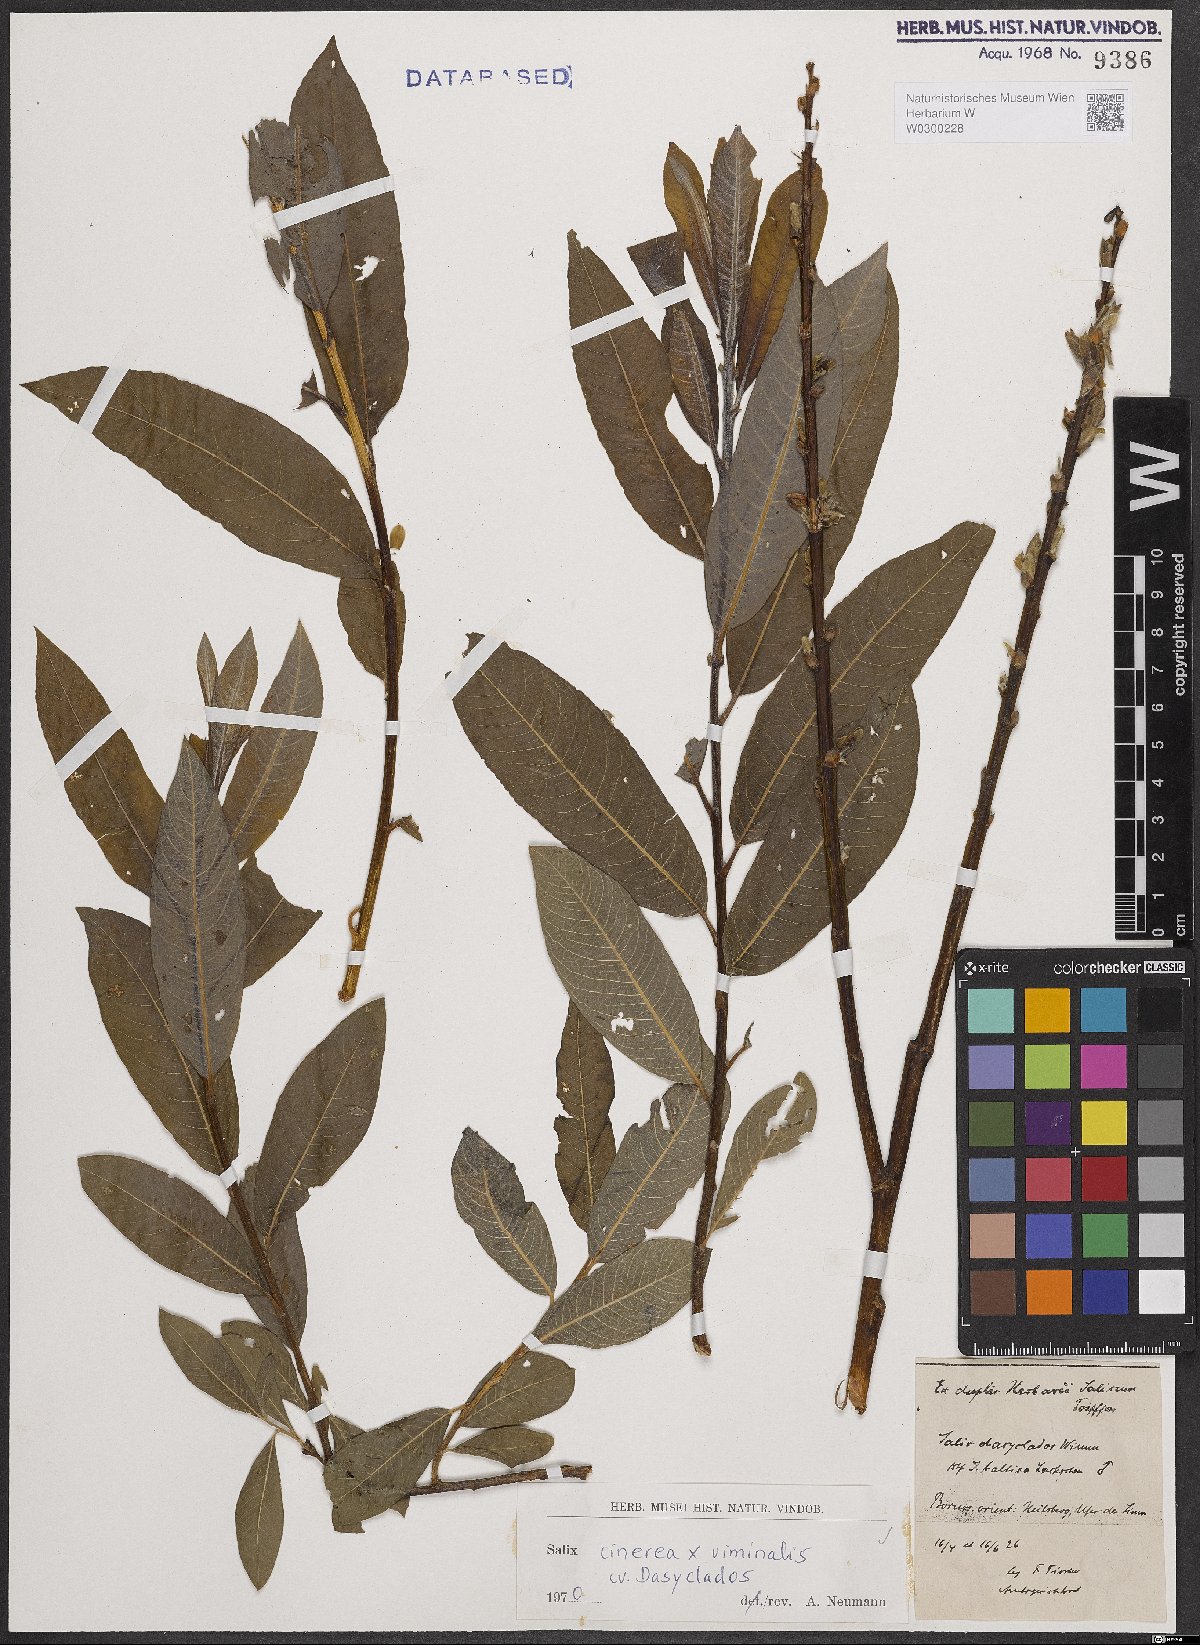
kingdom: Plantae
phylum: Tracheophyta
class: Magnoliopsida
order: Malpighiales
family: Salicaceae
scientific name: Salicaceae
